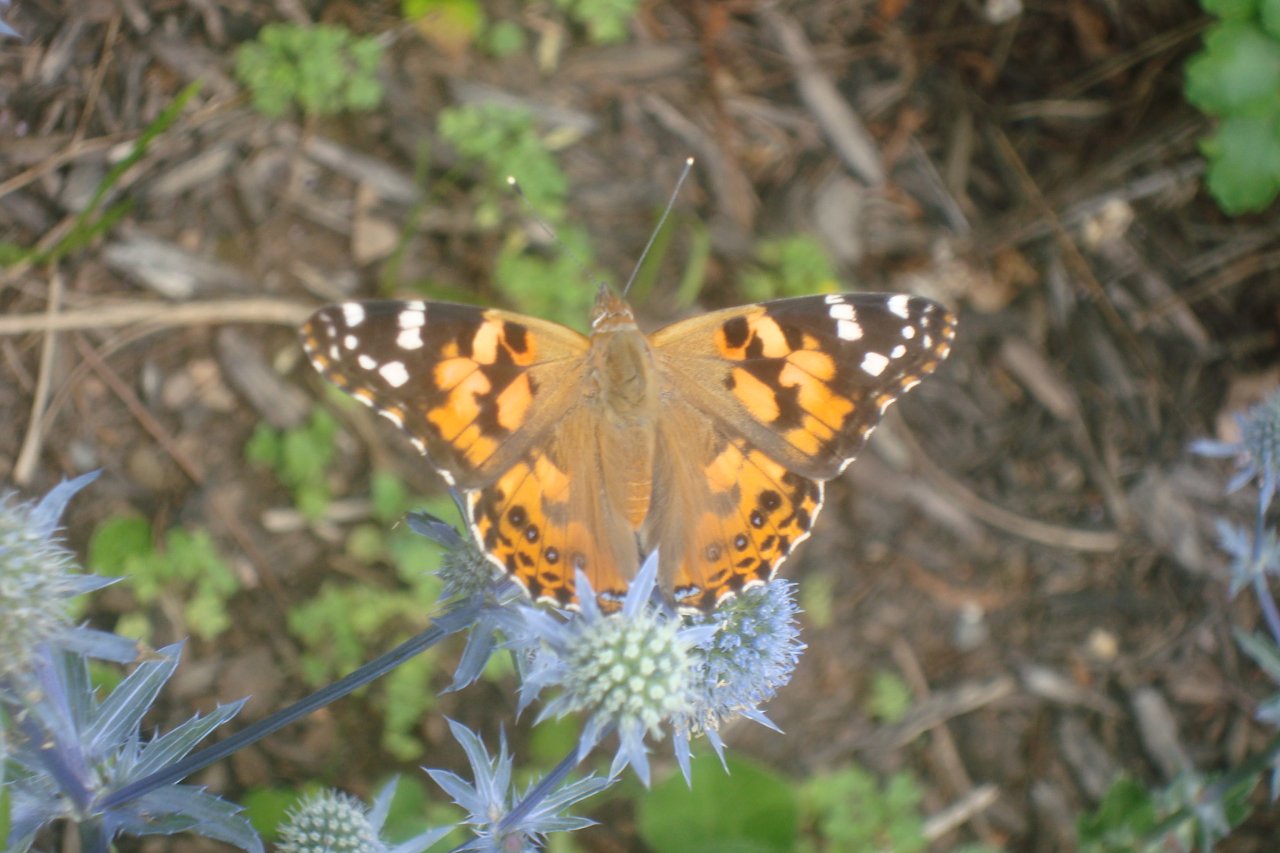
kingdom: Animalia
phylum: Arthropoda
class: Insecta
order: Lepidoptera
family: Nymphalidae
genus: Vanessa
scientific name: Vanessa cardui
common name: Painted Lady
